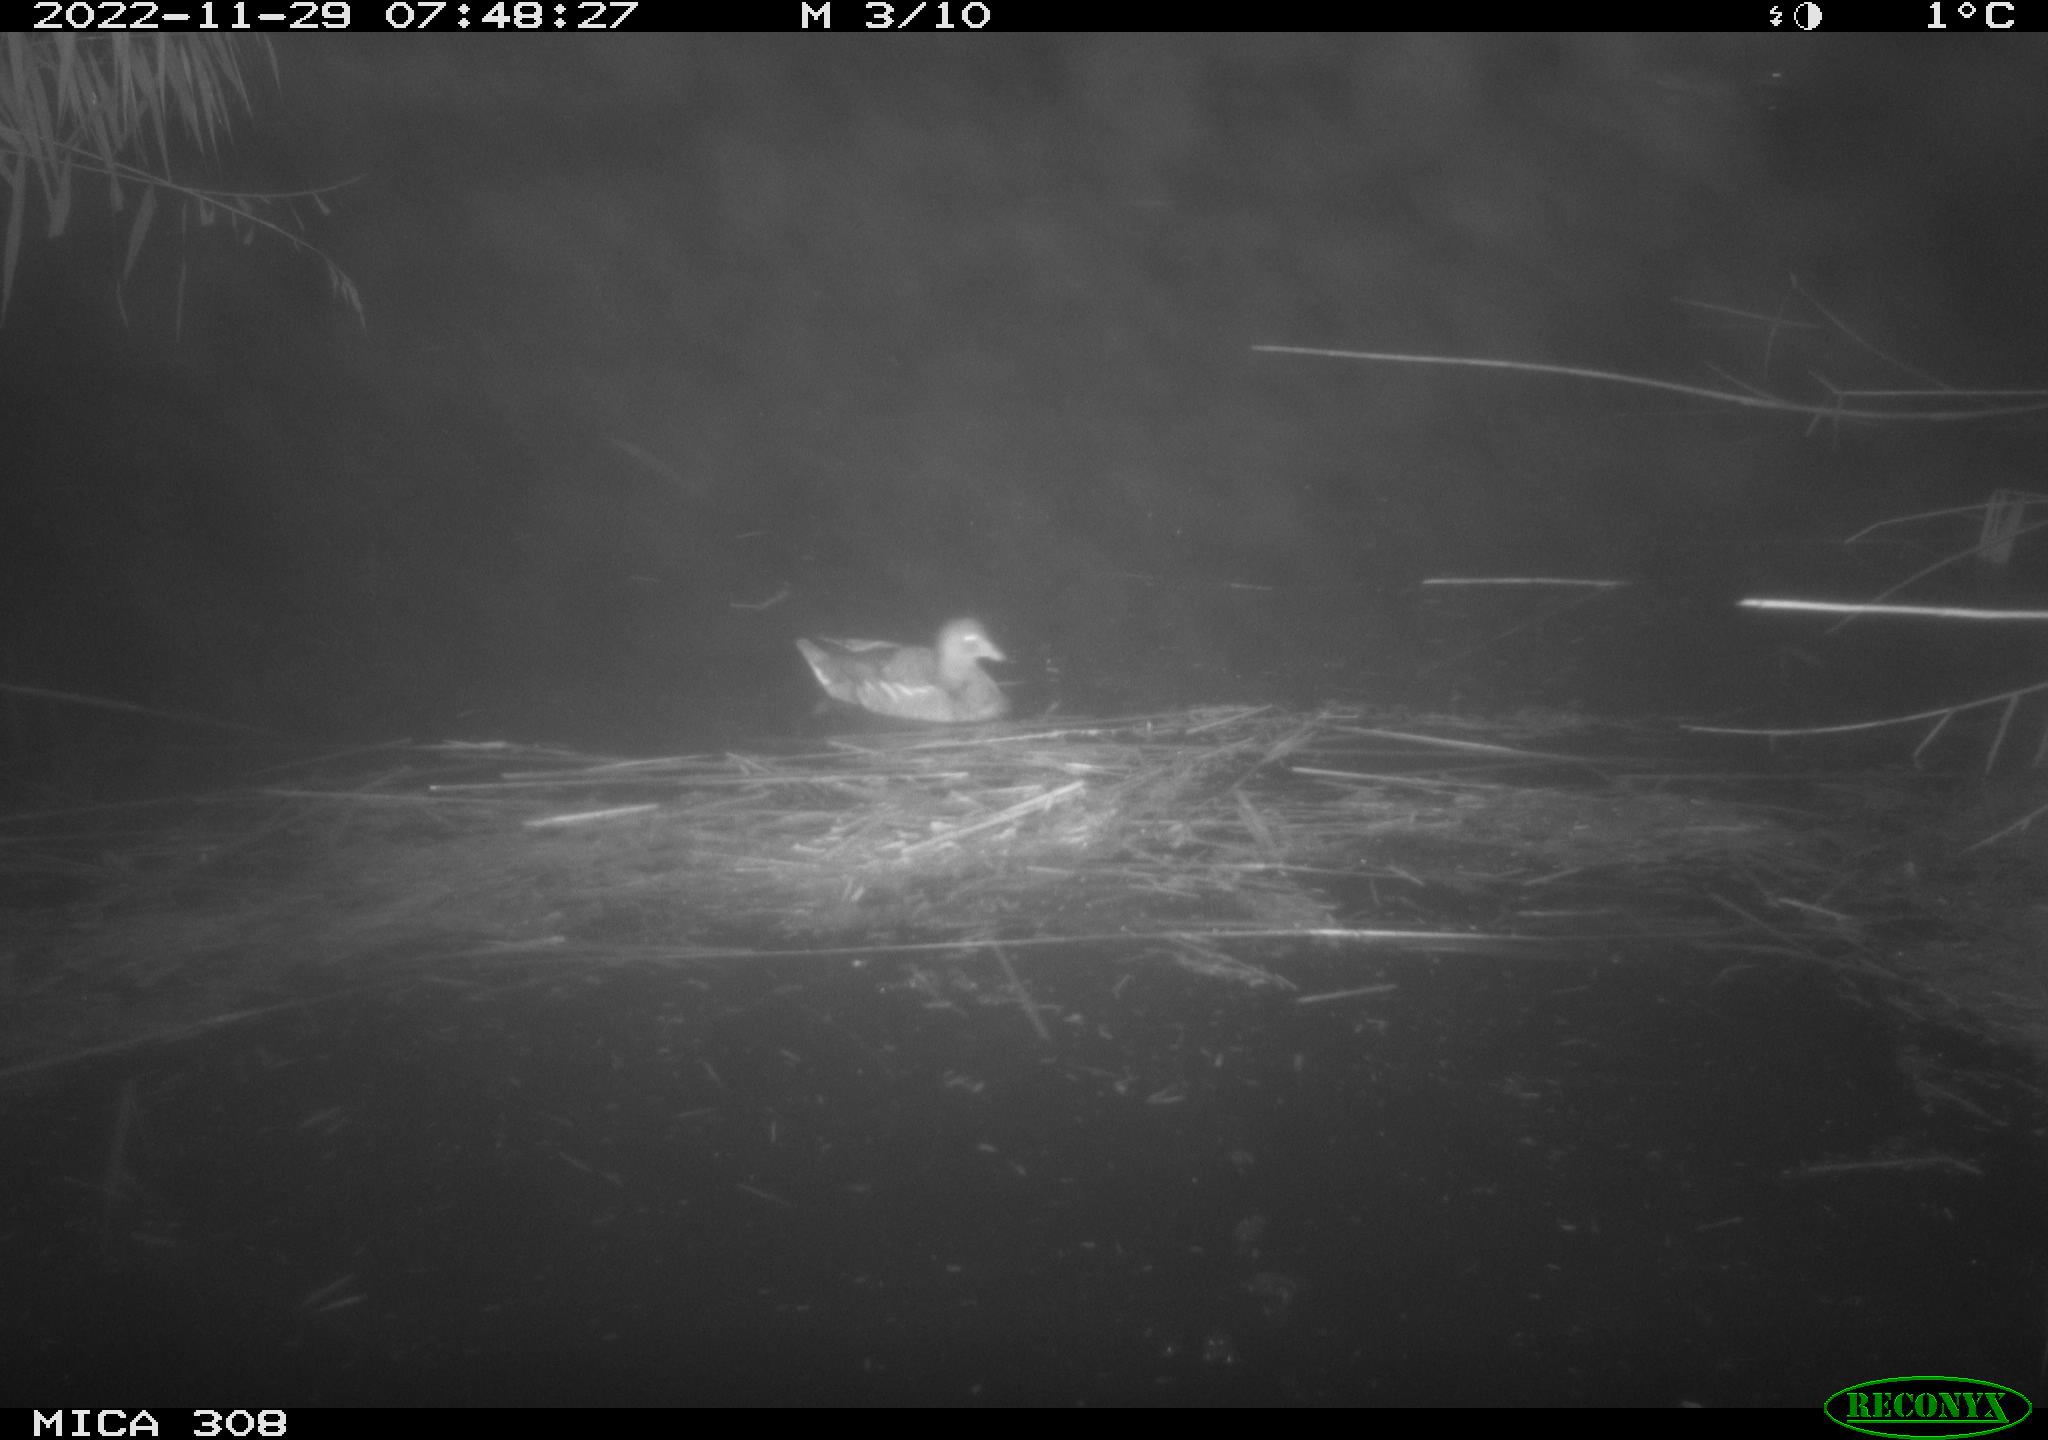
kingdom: Animalia
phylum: Chordata
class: Aves
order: Gruiformes
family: Rallidae
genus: Gallinula
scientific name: Gallinula chloropus
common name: Common moorhen
